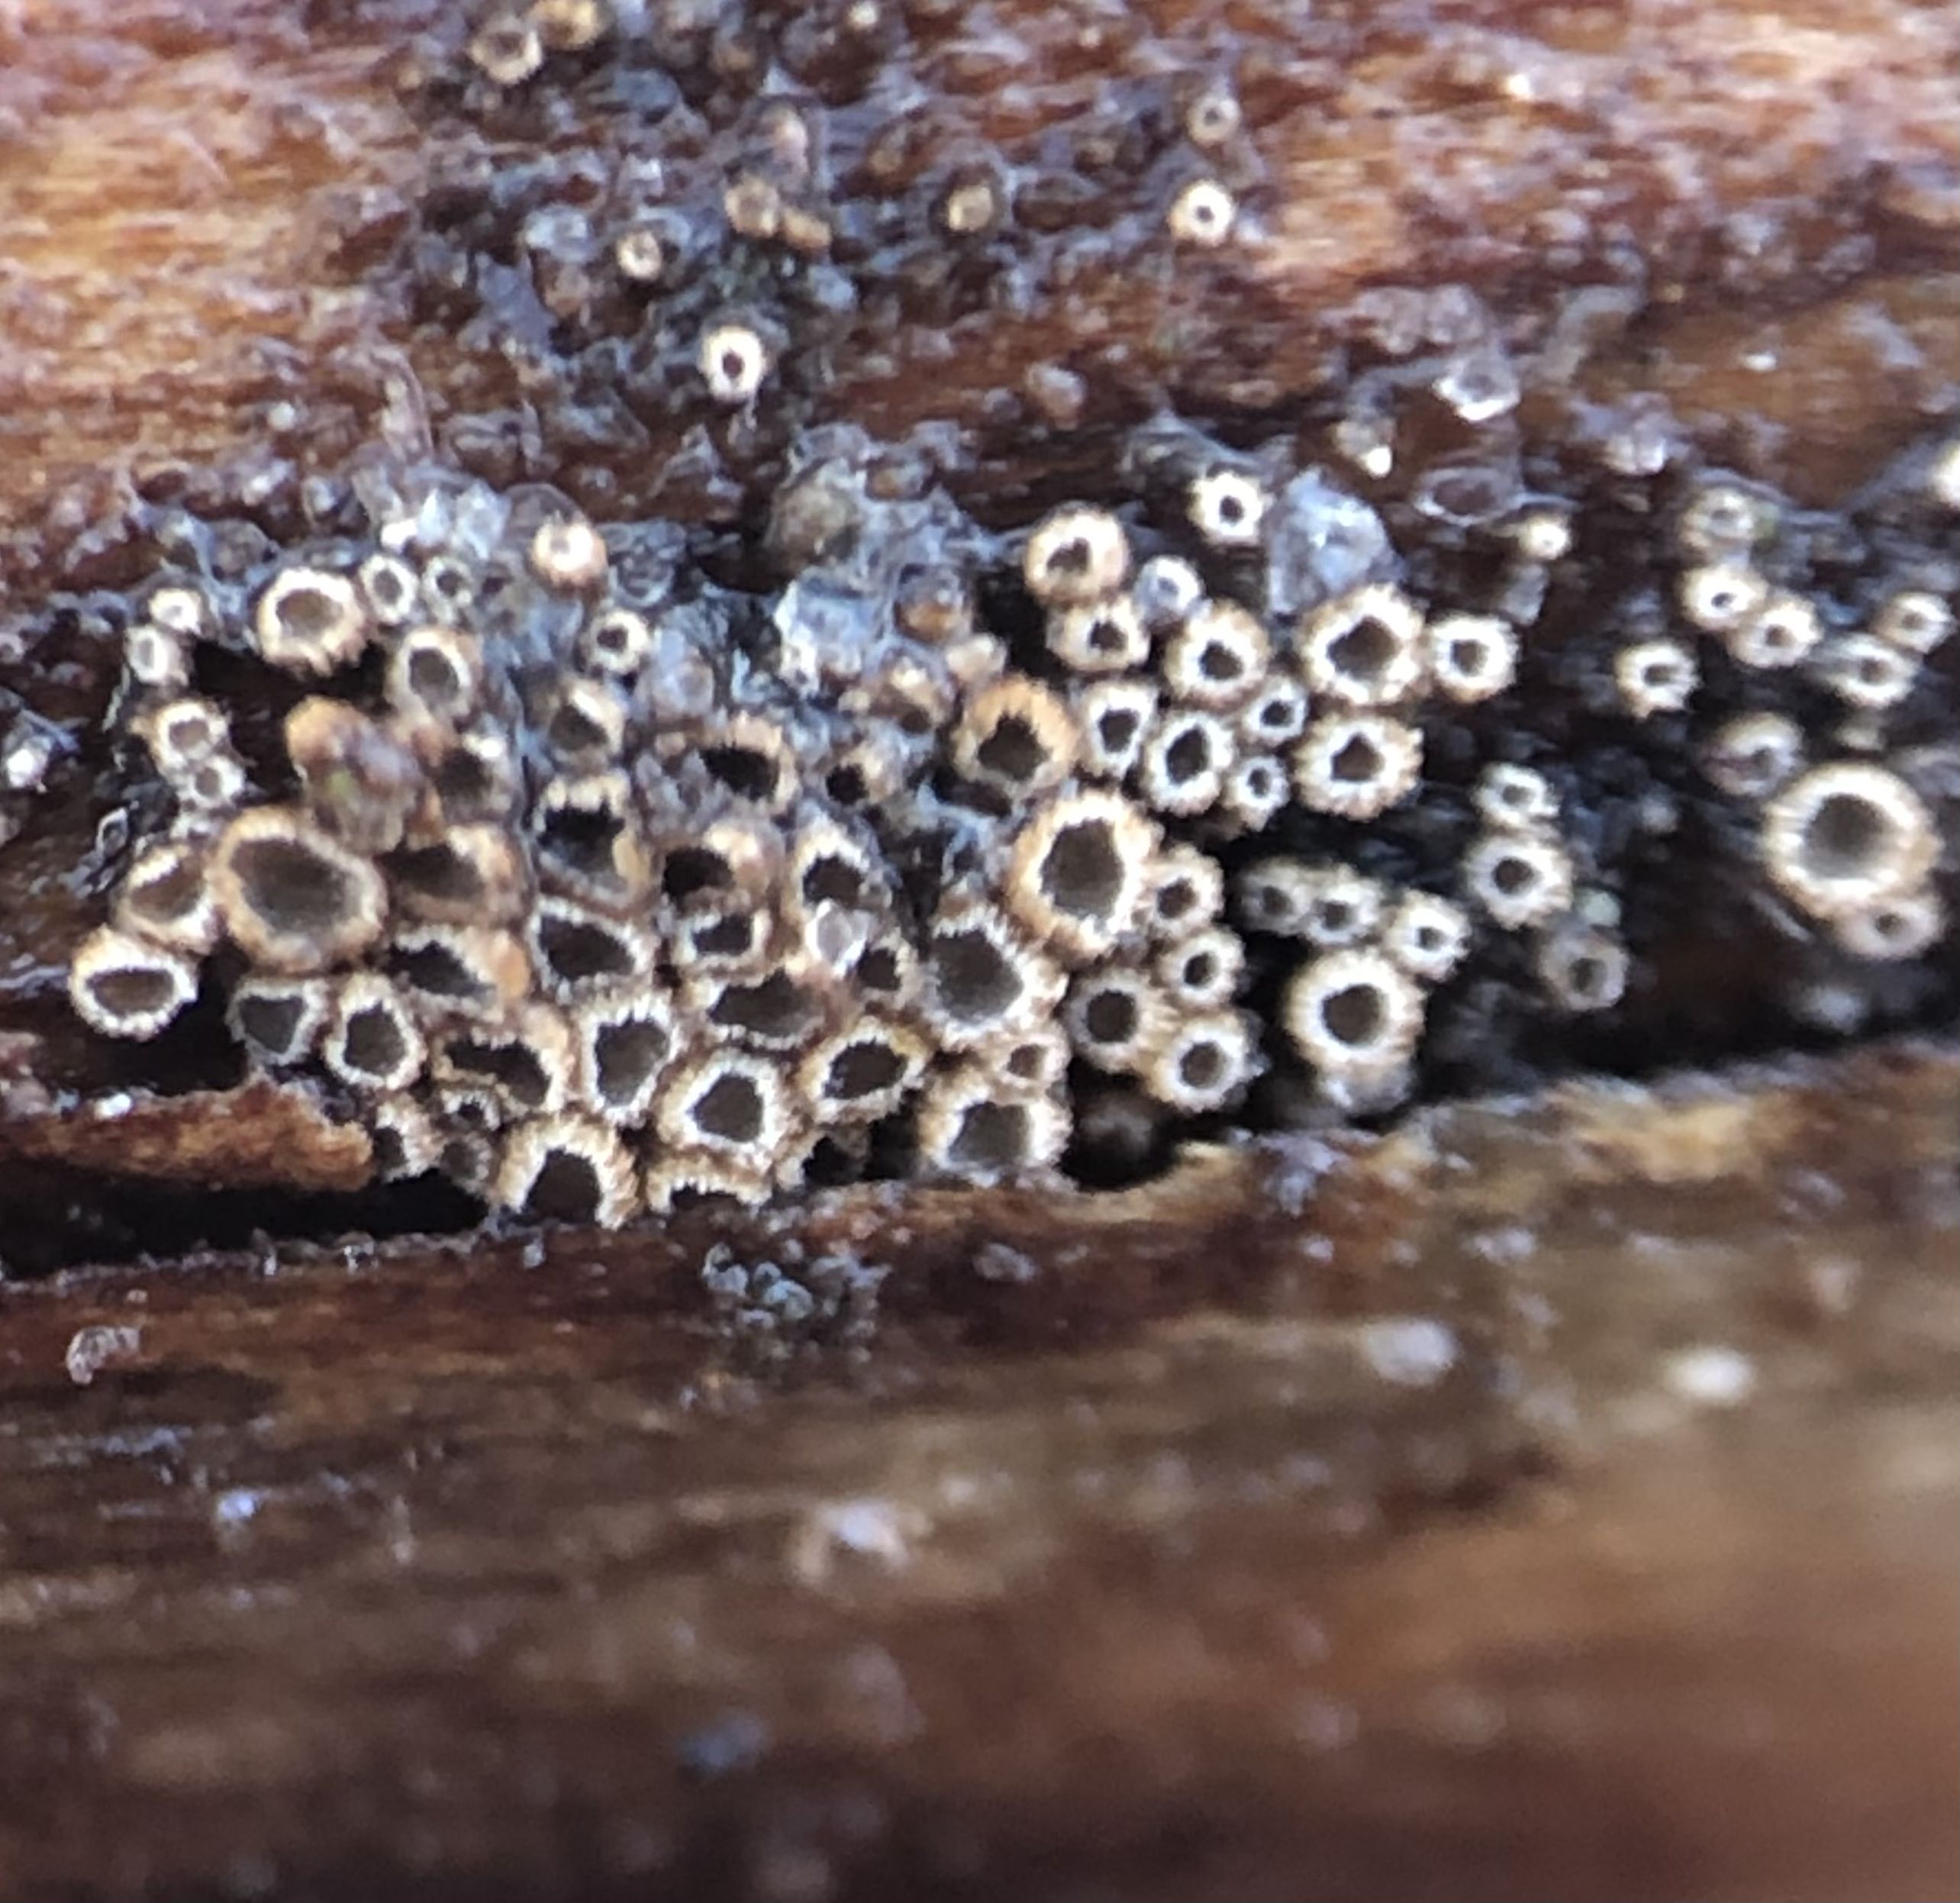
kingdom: Fungi
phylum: Basidiomycota
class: Agaricomycetes
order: Agaricales
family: Niaceae
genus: Merismodes
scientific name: Merismodes anomala
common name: almindelig læderskål
